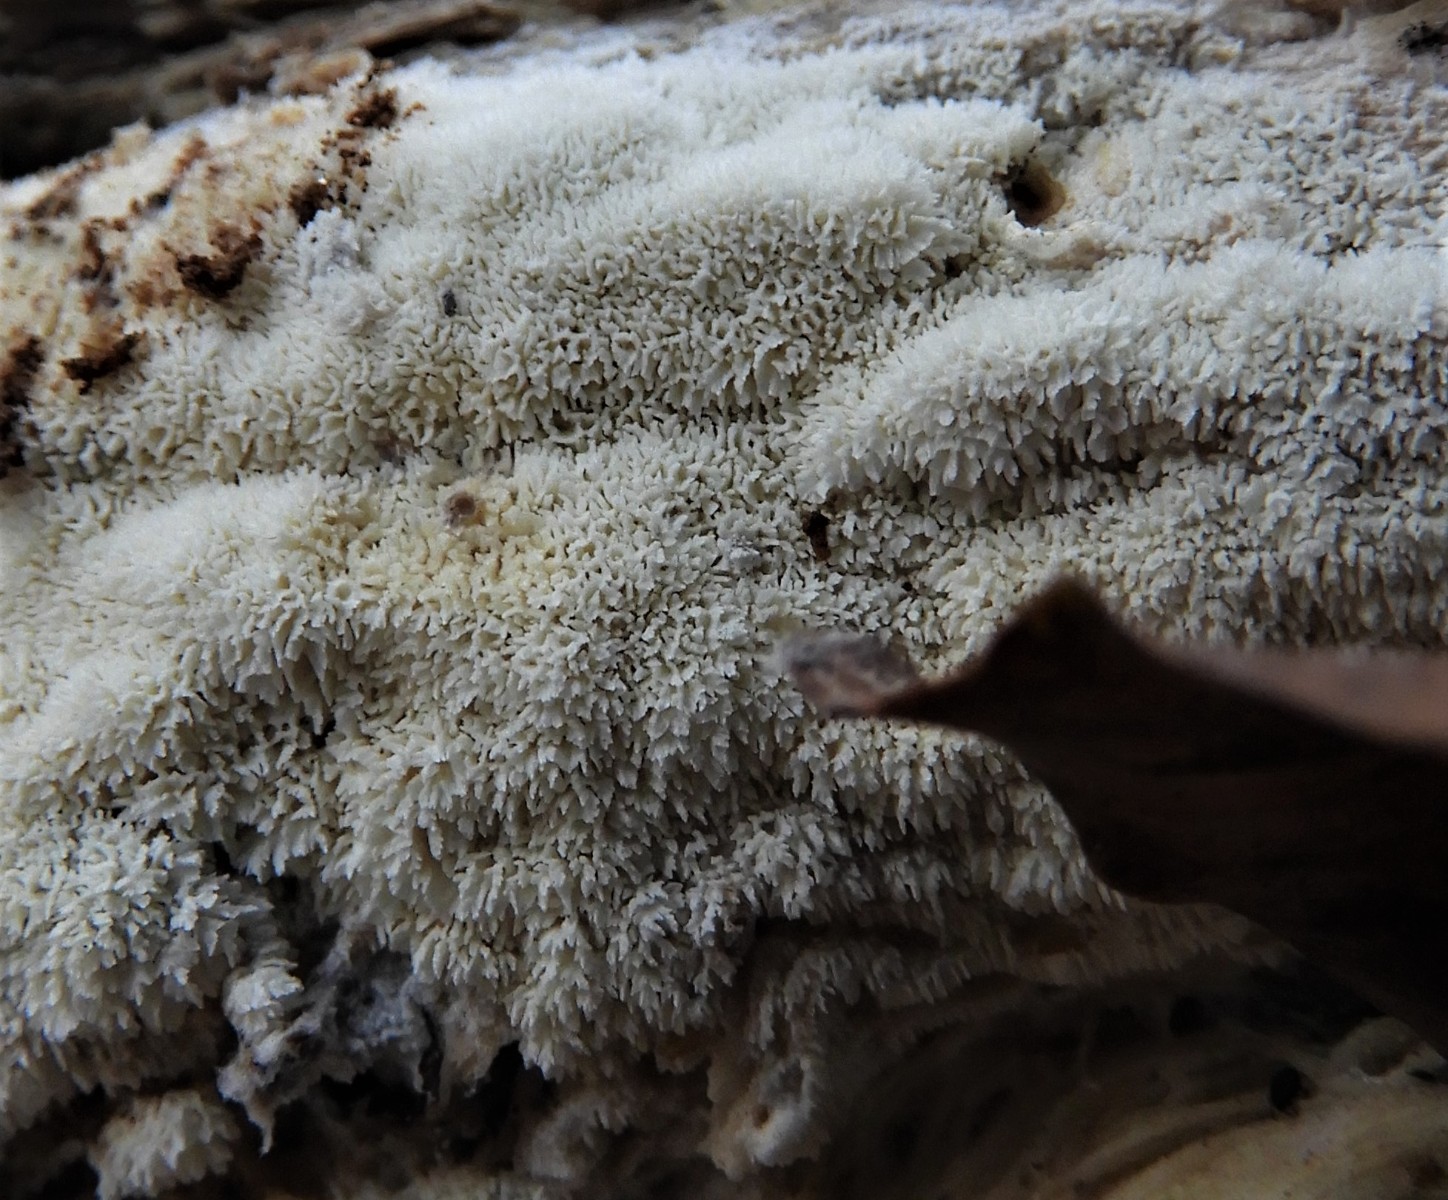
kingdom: Fungi
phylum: Basidiomycota
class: Agaricomycetes
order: Corticiales
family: Corticiaceae
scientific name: Corticiaceae
